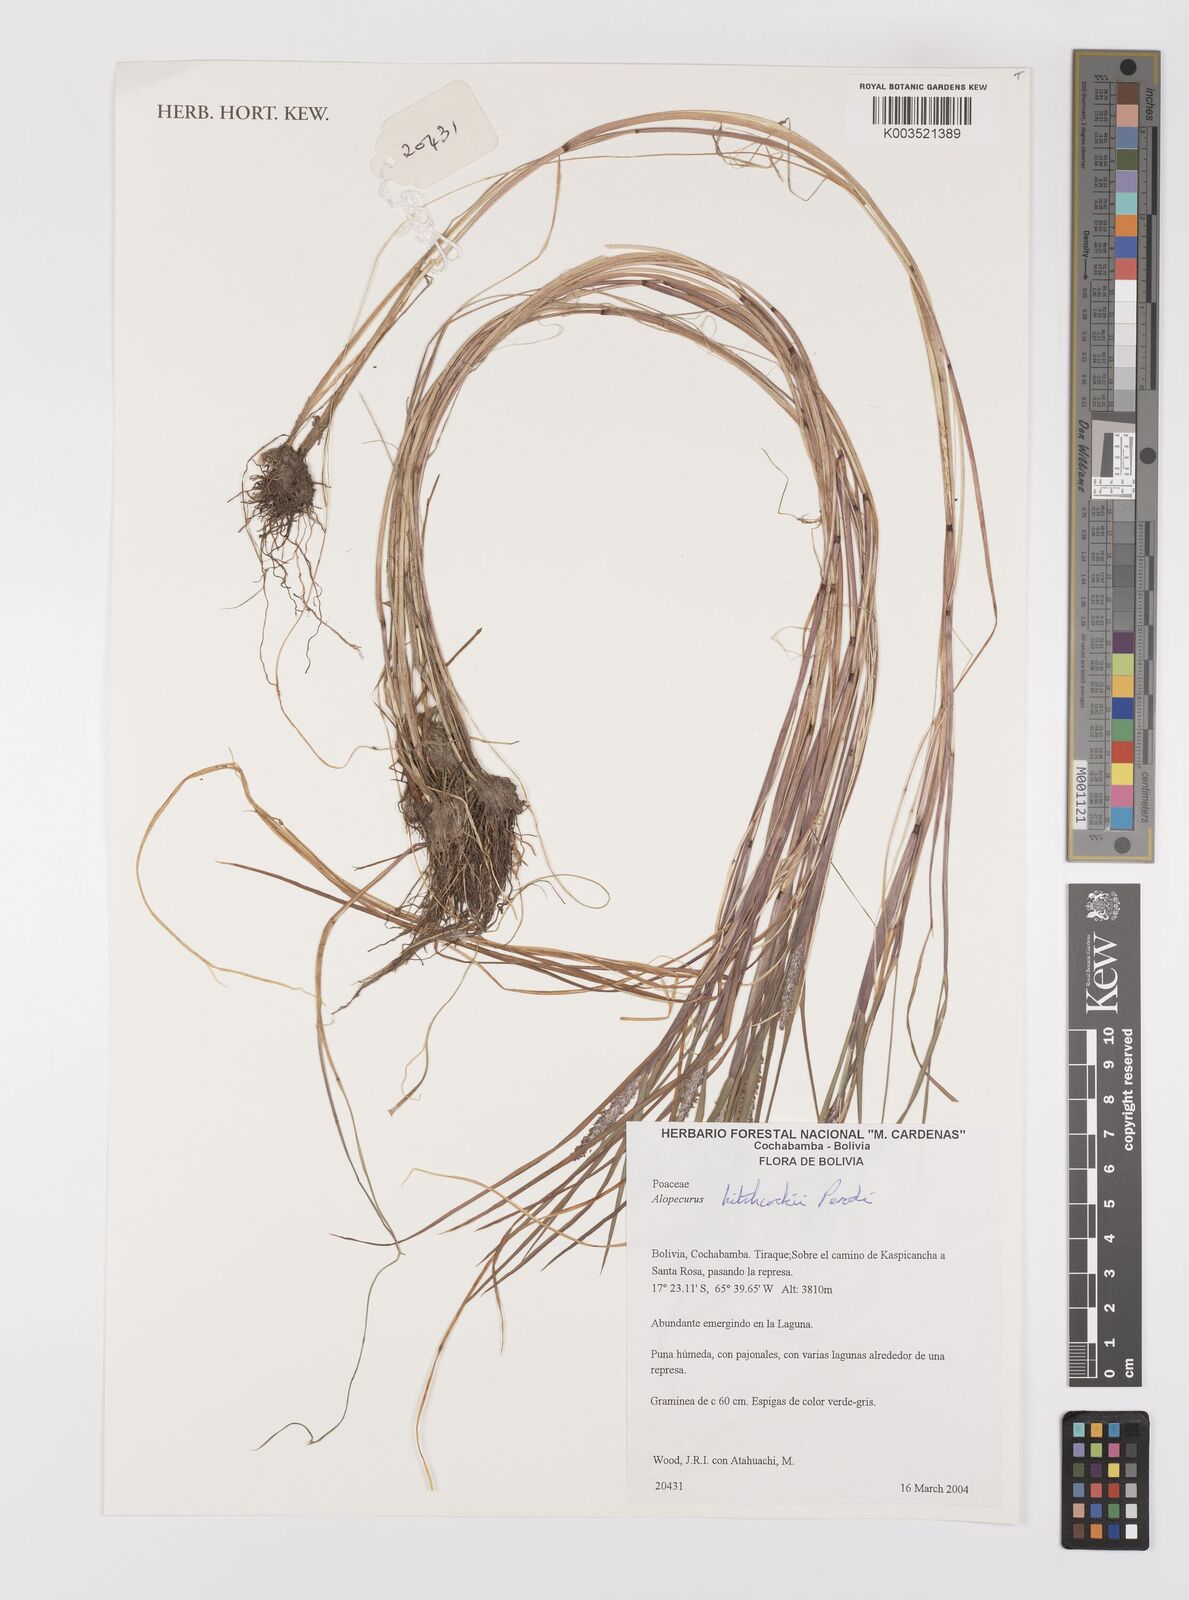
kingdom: Plantae
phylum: Tracheophyta
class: Liliopsida
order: Poales
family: Poaceae
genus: Alopecurus
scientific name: Alopecurus hitchcockii
